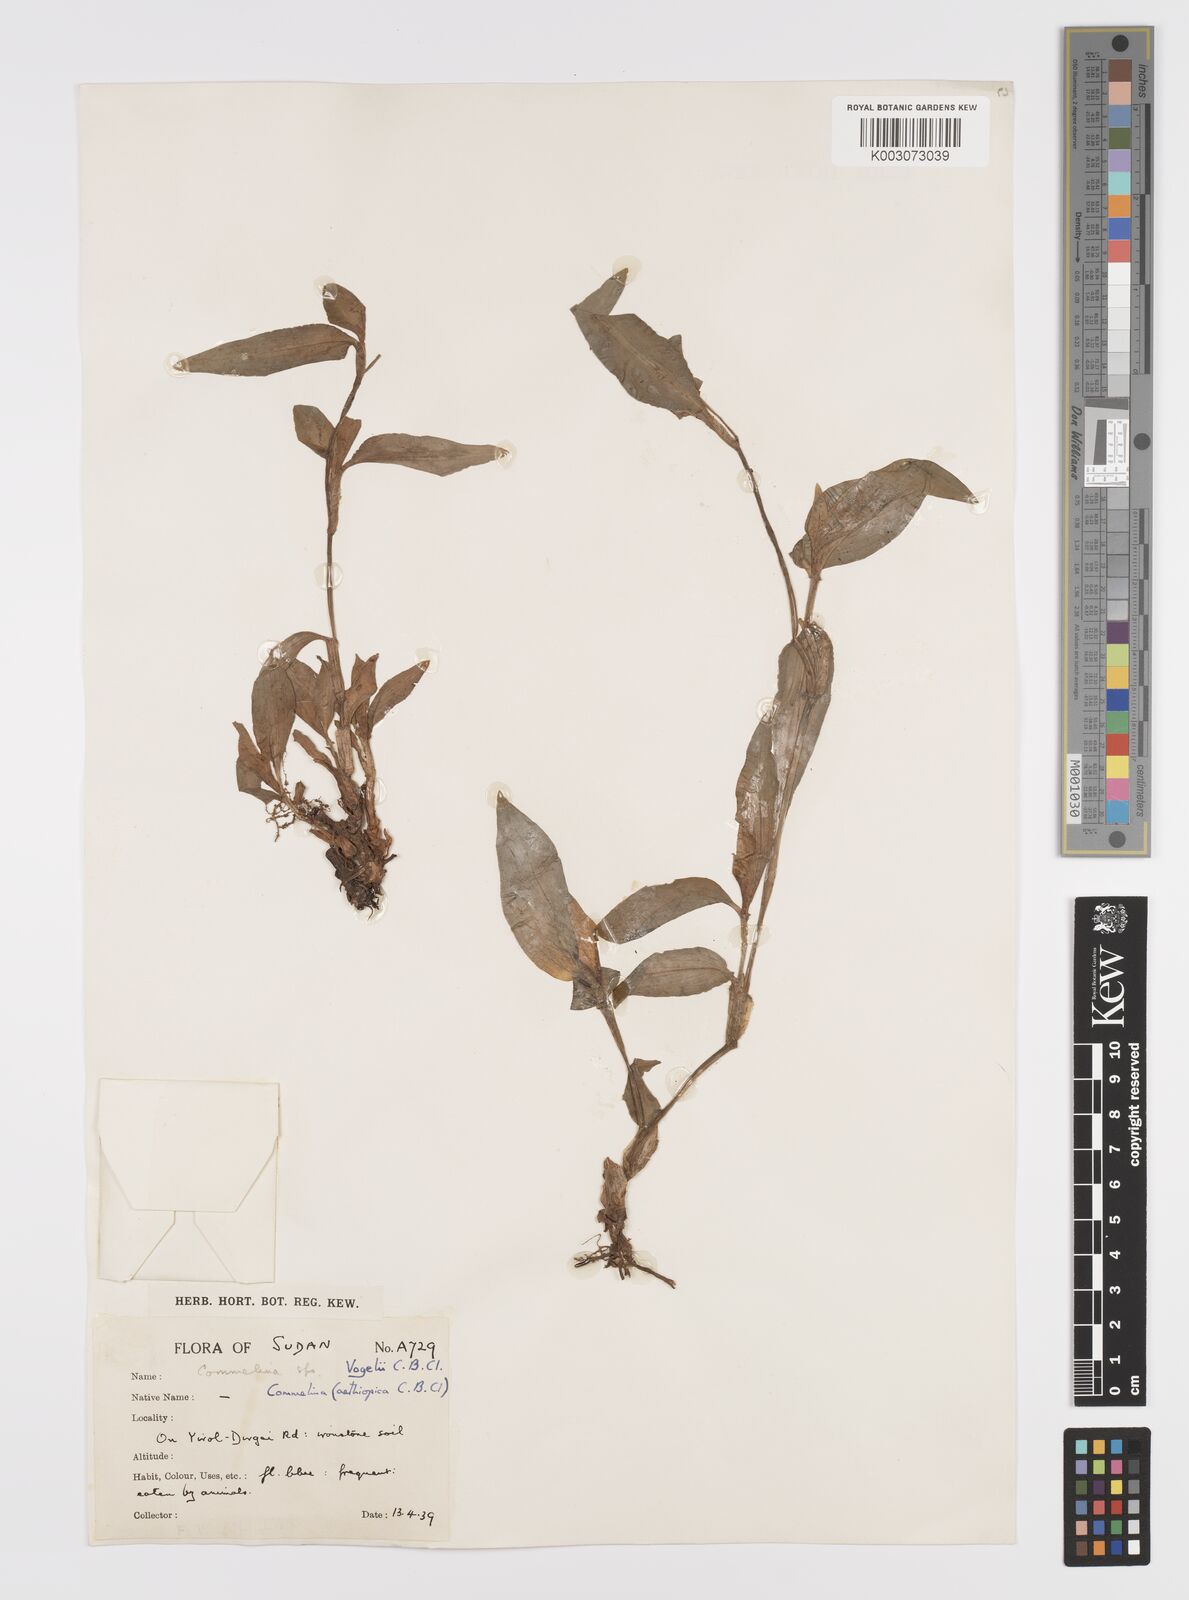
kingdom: Plantae
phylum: Tracheophyta
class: Liliopsida
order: Commelinales
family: Commelinaceae
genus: Commelina
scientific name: Commelina bracteosa
